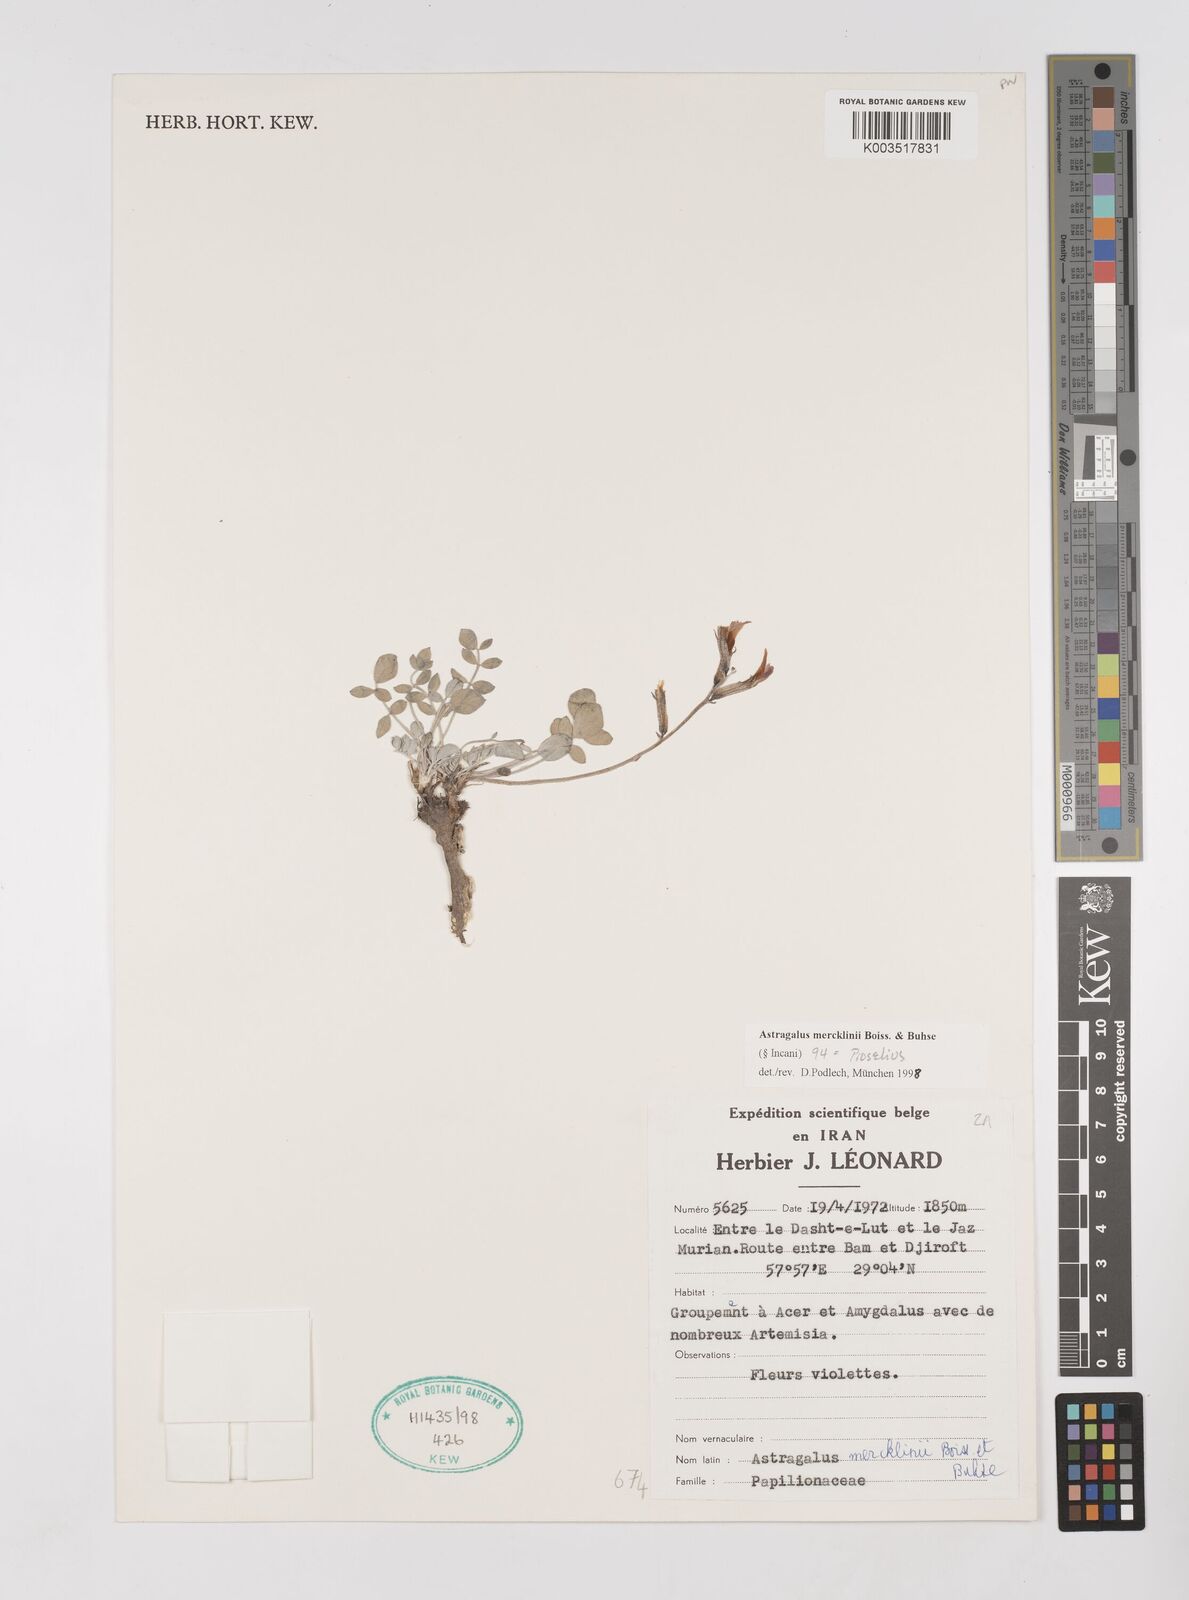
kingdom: Plantae
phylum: Tracheophyta
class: Magnoliopsida
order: Fabales
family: Fabaceae
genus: Astragalus
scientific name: Astragalus mercklinii
